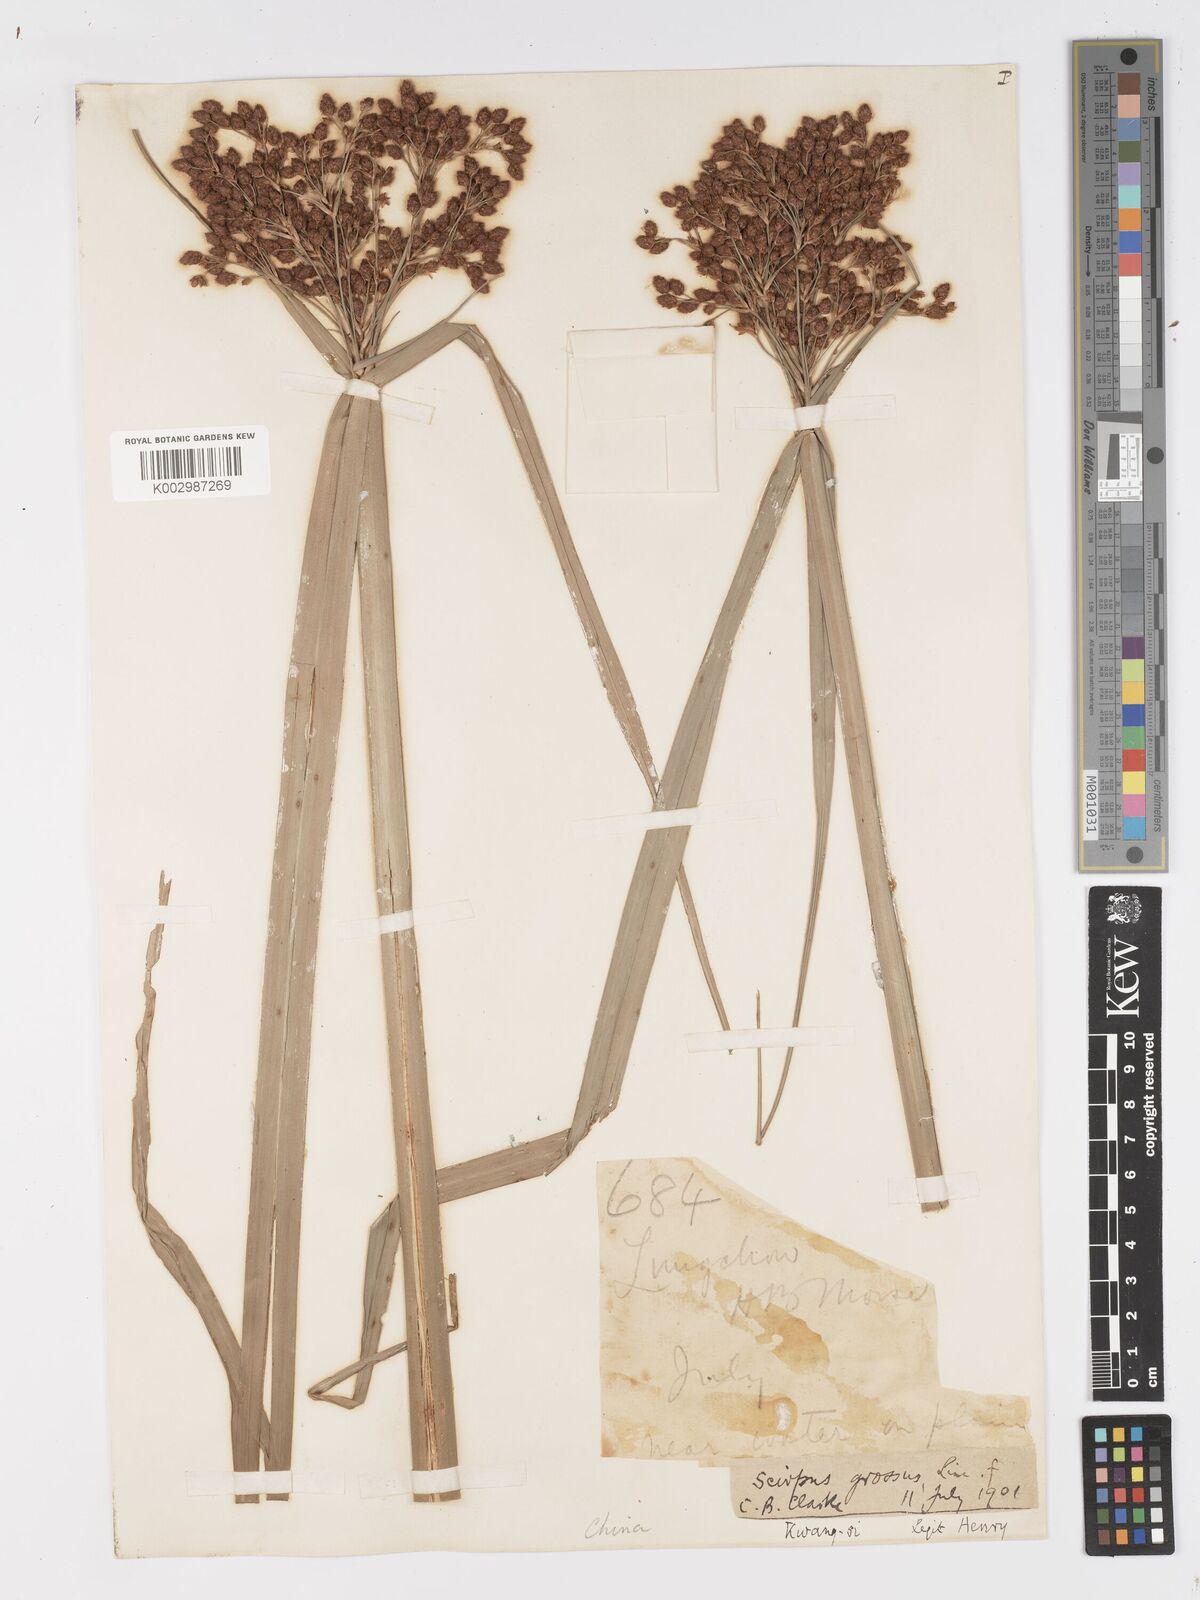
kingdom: Plantae
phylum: Tracheophyta
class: Liliopsida
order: Poales
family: Cyperaceae
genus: Actinoscirpus
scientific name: Actinoscirpus grossus
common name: Giant bur rush
